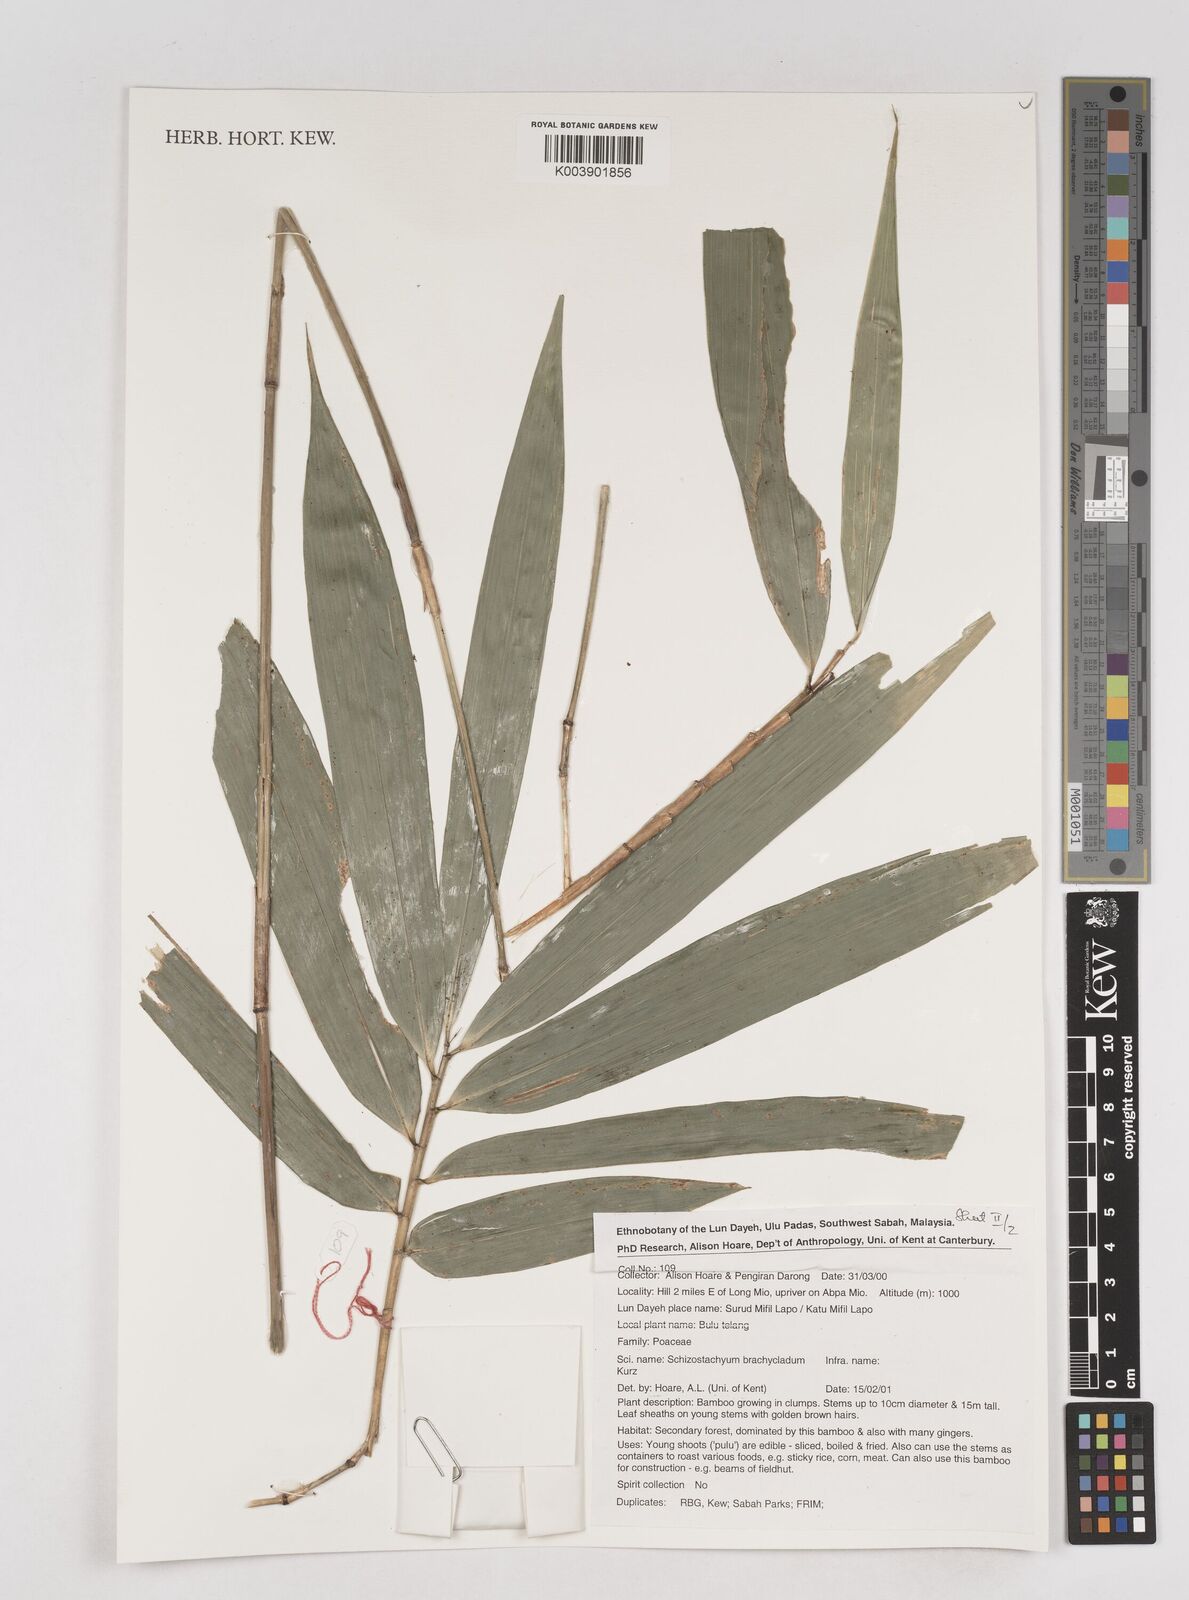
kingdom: Plantae
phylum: Tracheophyta
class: Liliopsida
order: Poales
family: Poaceae
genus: Schizostachyum
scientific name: Schizostachyum brachycladum
